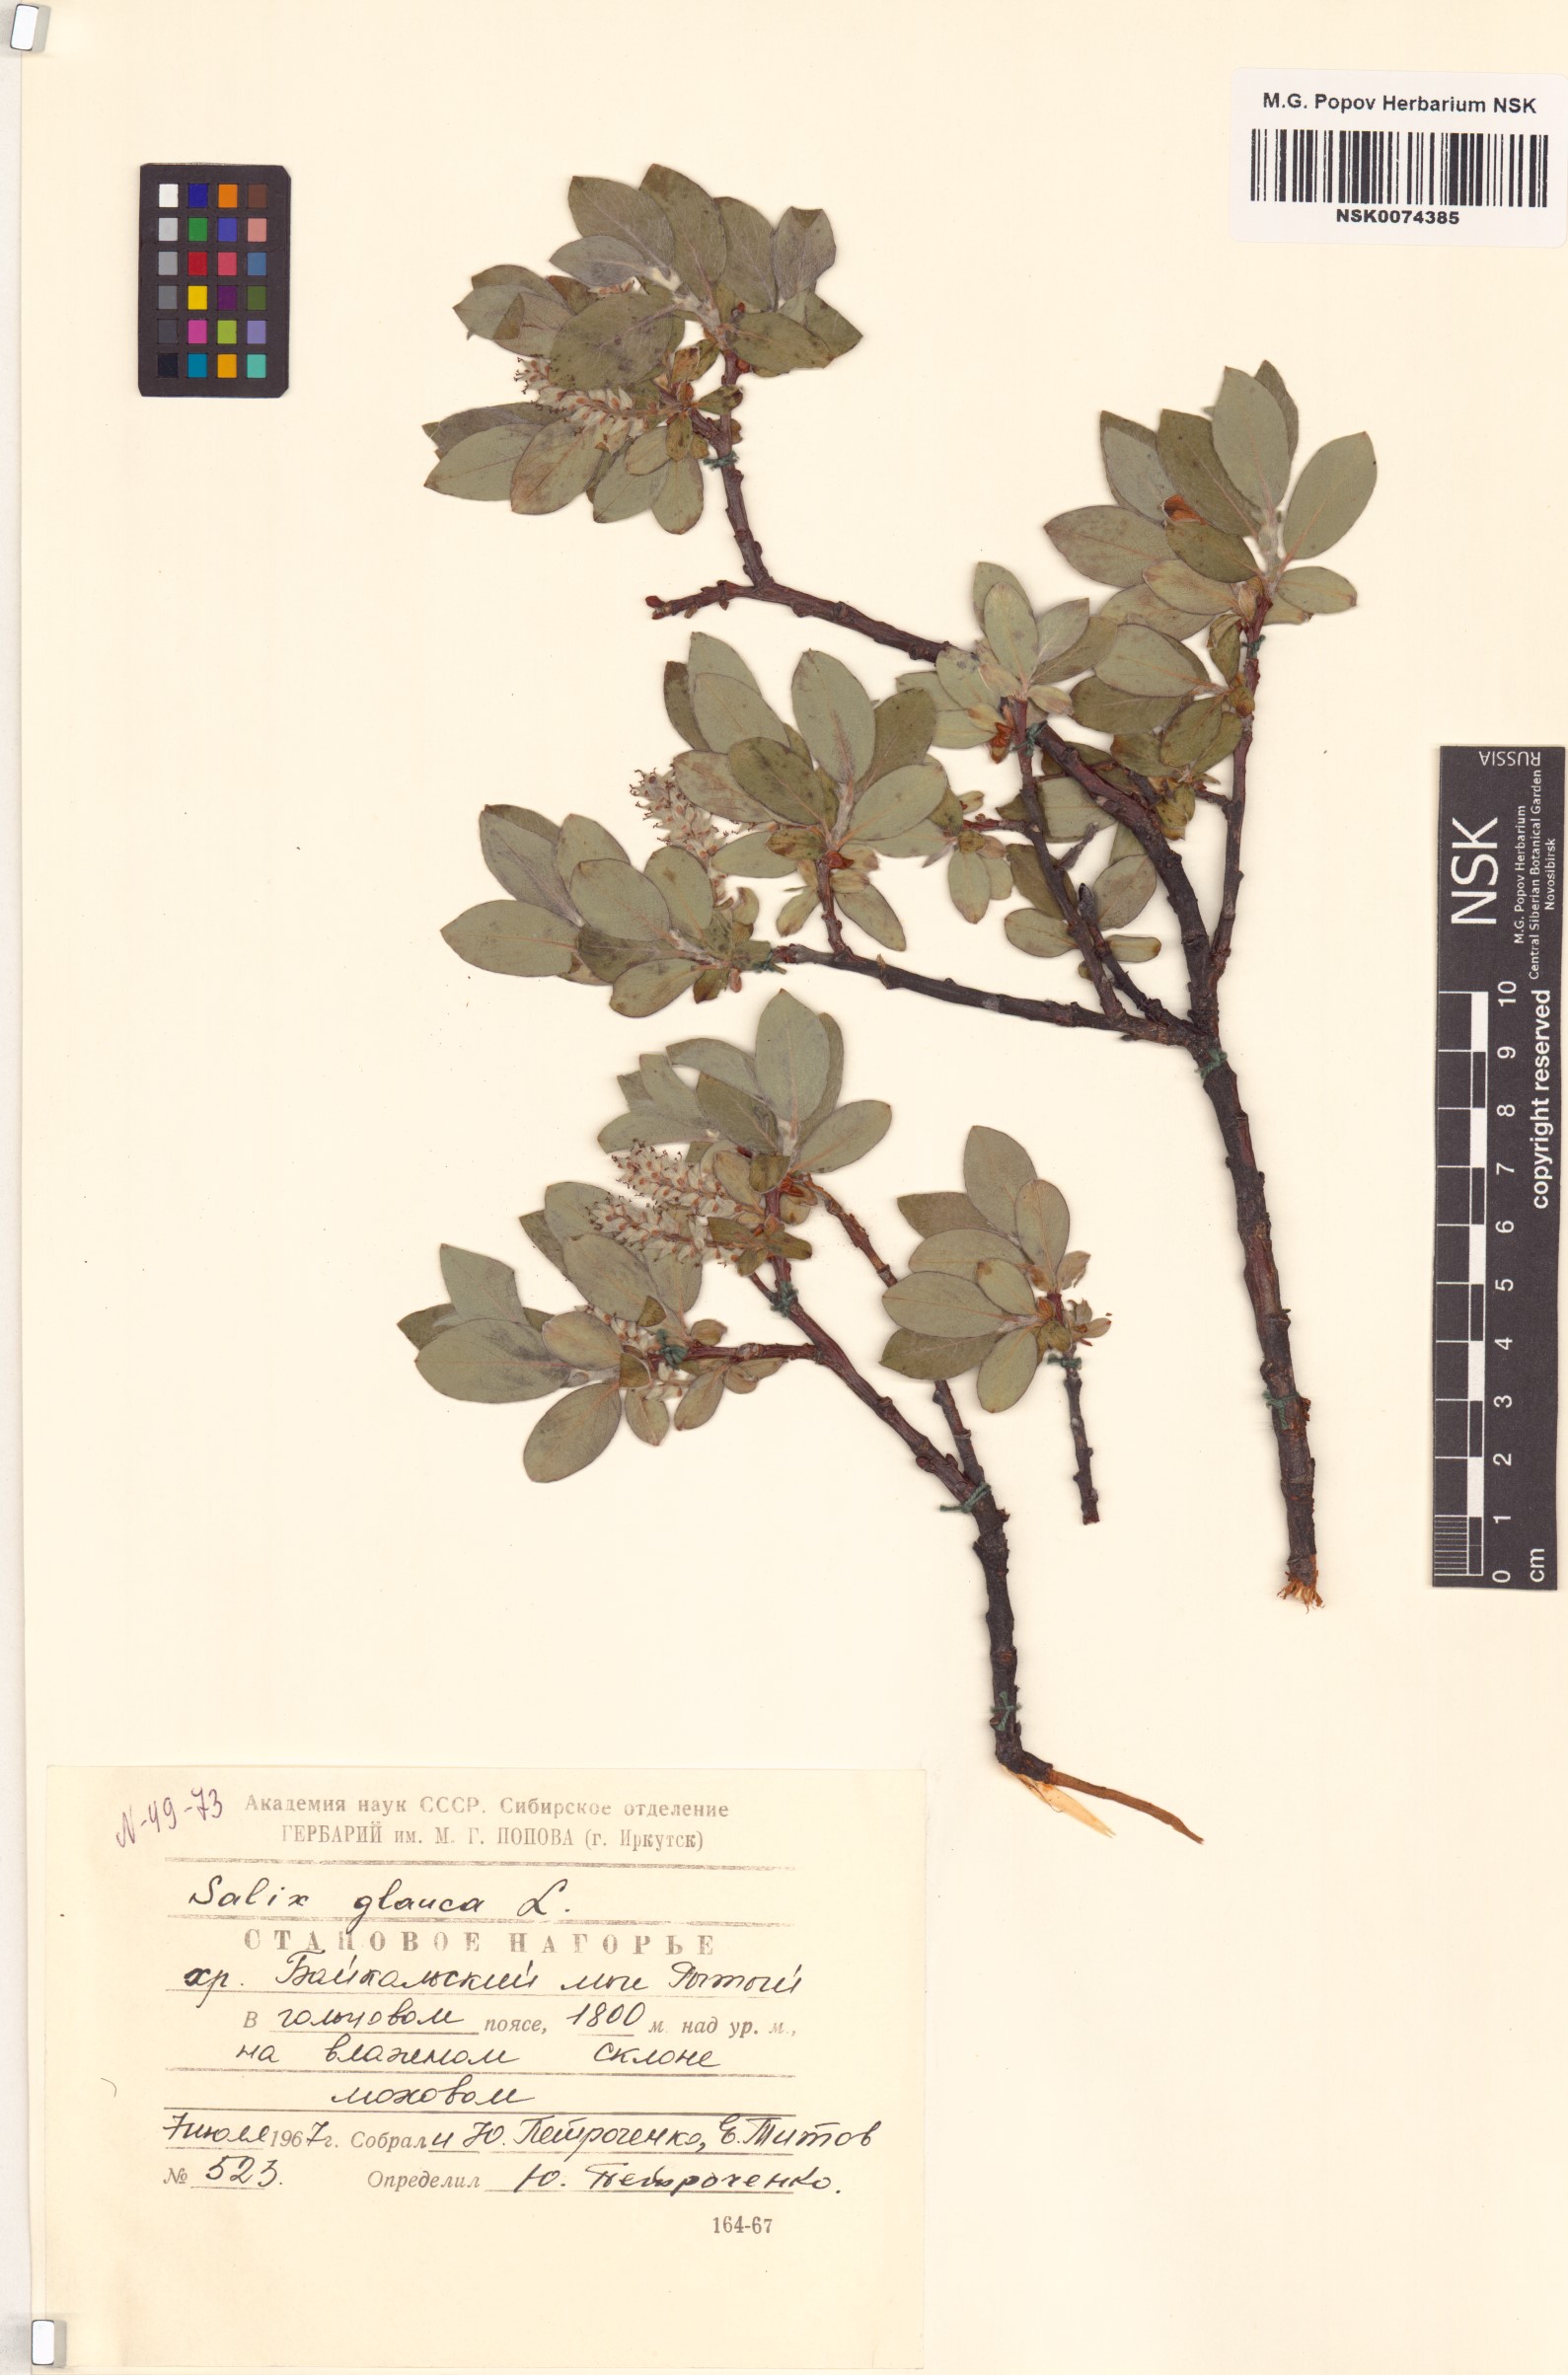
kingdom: Plantae
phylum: Tracheophyta
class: Magnoliopsida
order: Malpighiales
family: Salicaceae
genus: Salix
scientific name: Salix glauca
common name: Glaucous willow
